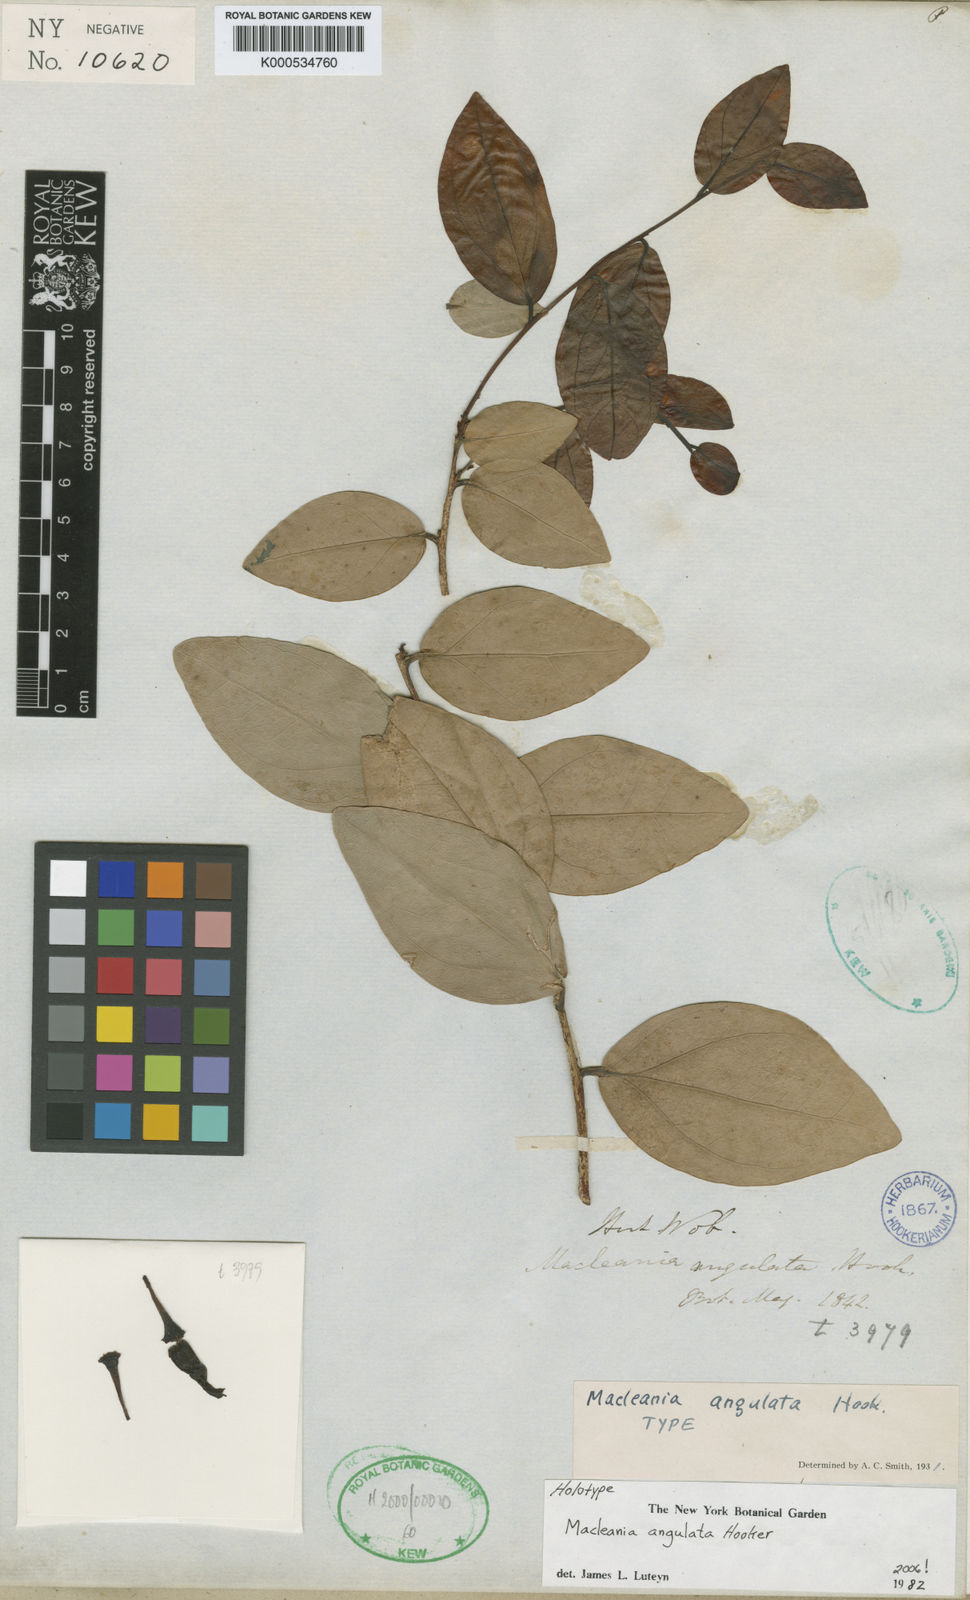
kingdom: Plantae
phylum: Tracheophyta
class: Magnoliopsida
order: Ericales
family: Ericaceae
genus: Macleania
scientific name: Macleania angulata
